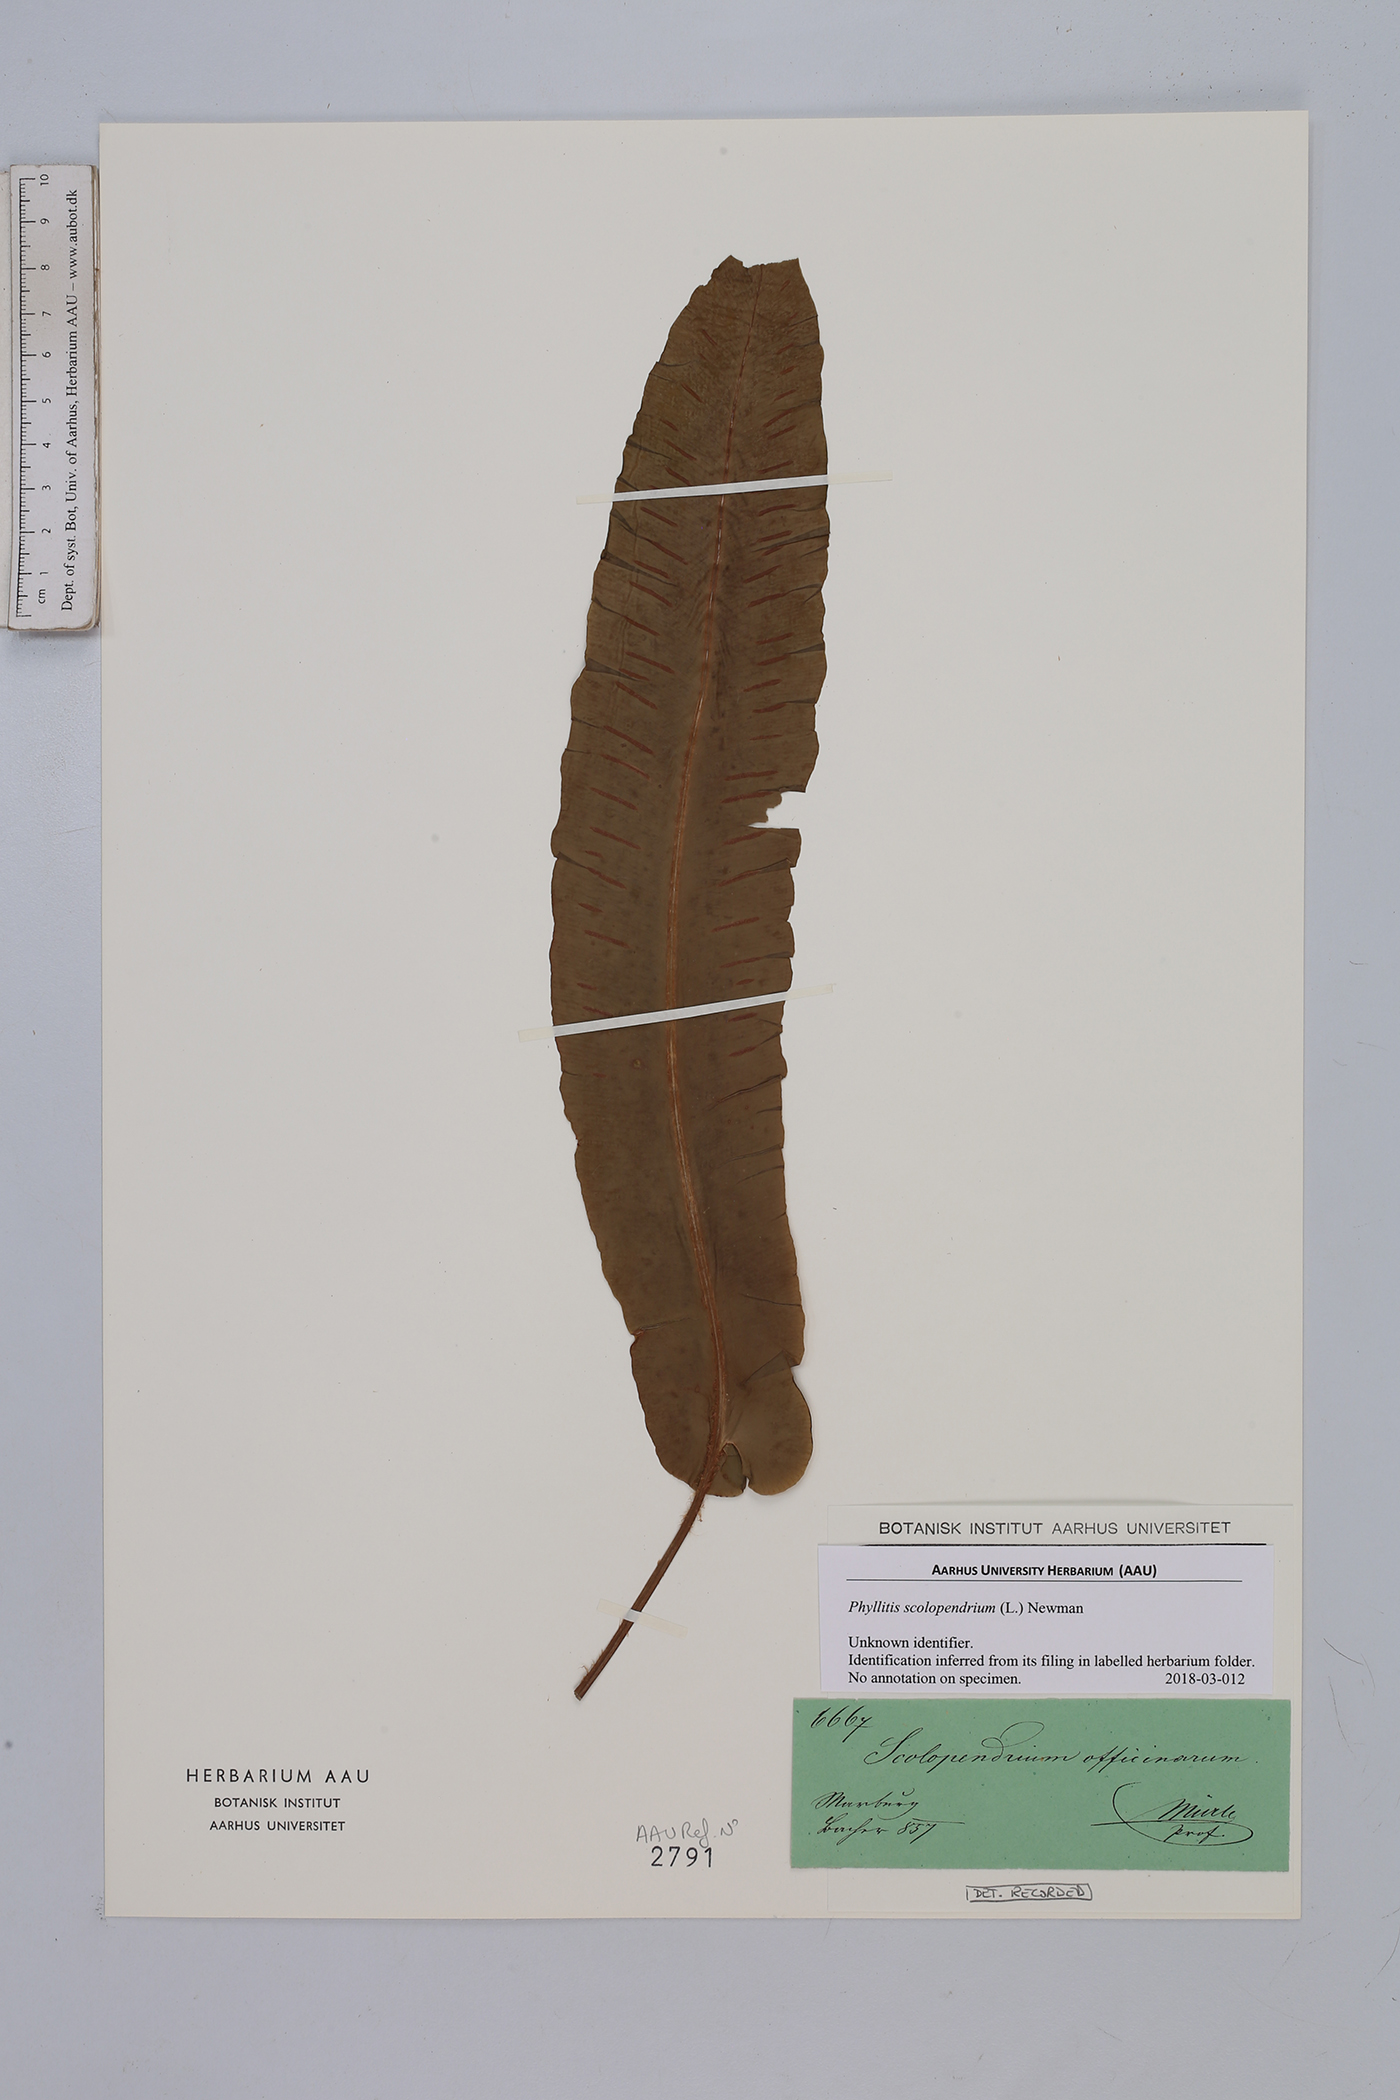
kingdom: Plantae
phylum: Tracheophyta
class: Polypodiopsida
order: Polypodiales
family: Aspleniaceae
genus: Asplenium
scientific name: Asplenium scolopendrium
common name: Hart's-tongue fern
